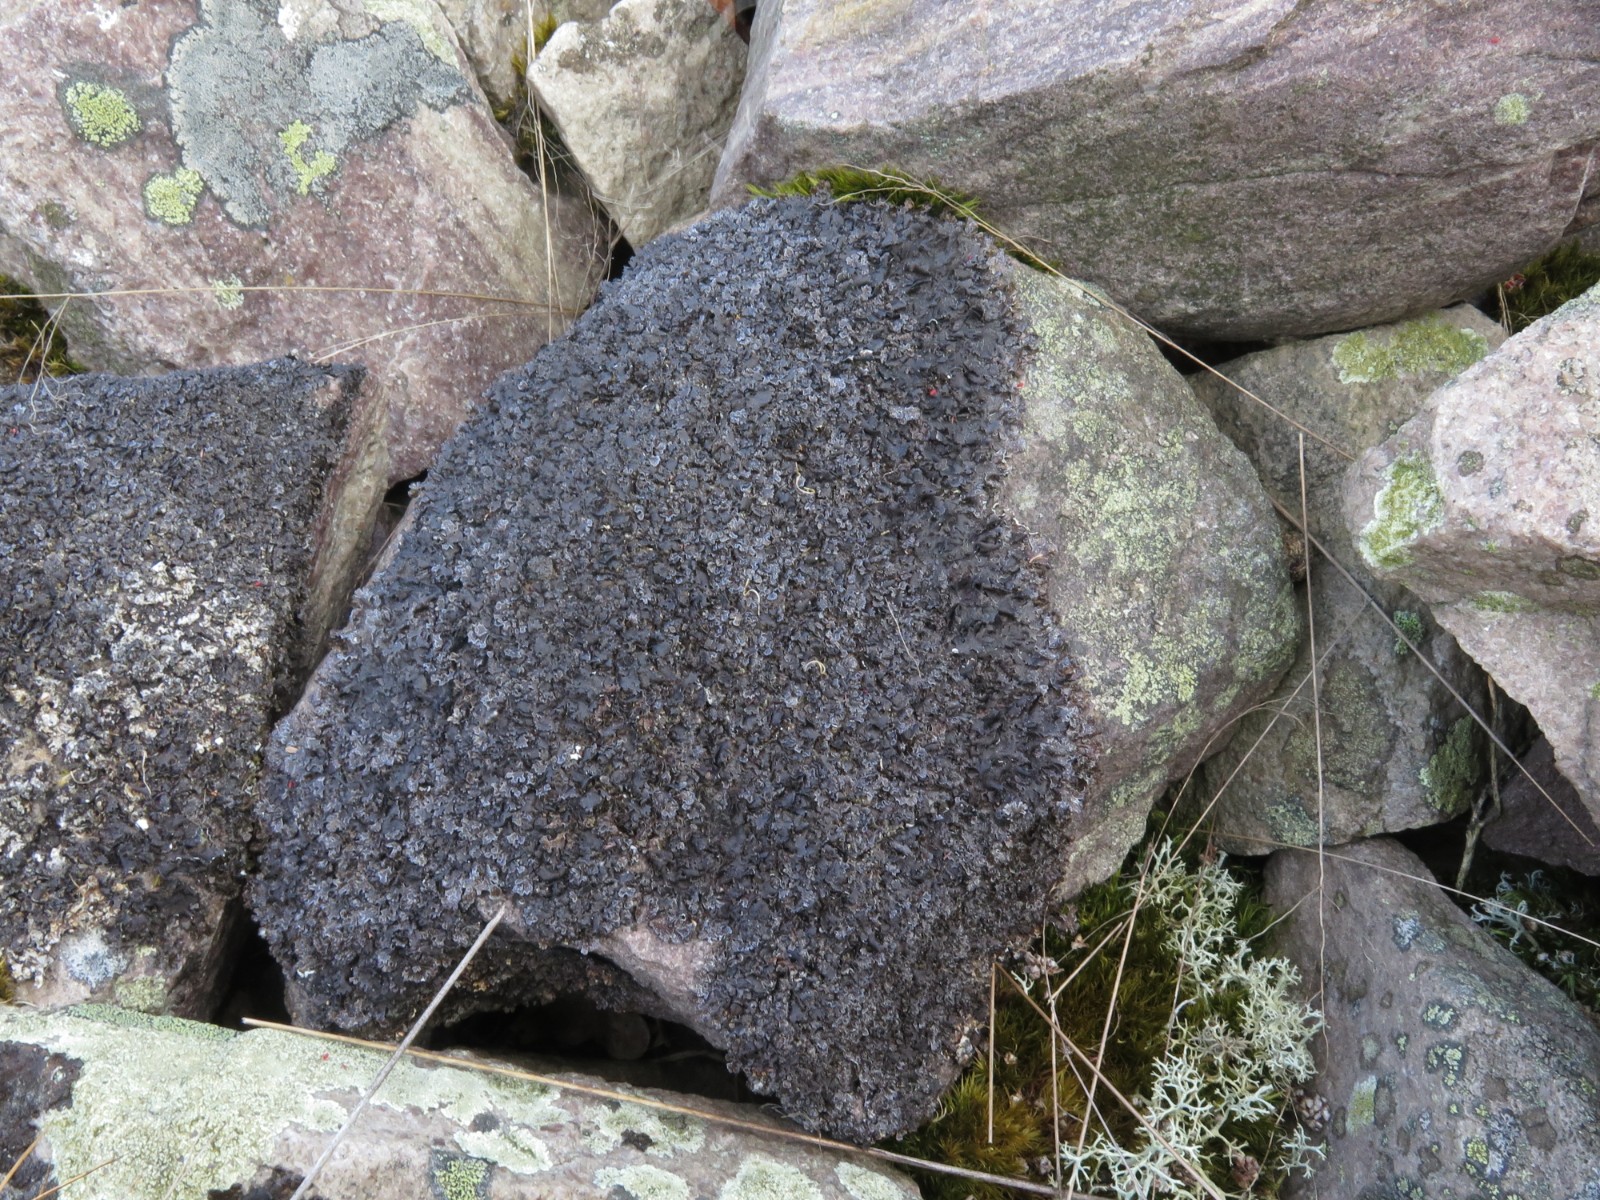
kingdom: Fungi
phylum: Ascomycota
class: Lecanoromycetes
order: Lecanorales
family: Parmeliaceae
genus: Parmelia
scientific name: Parmelia omphalodes
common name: bronze-skållav
